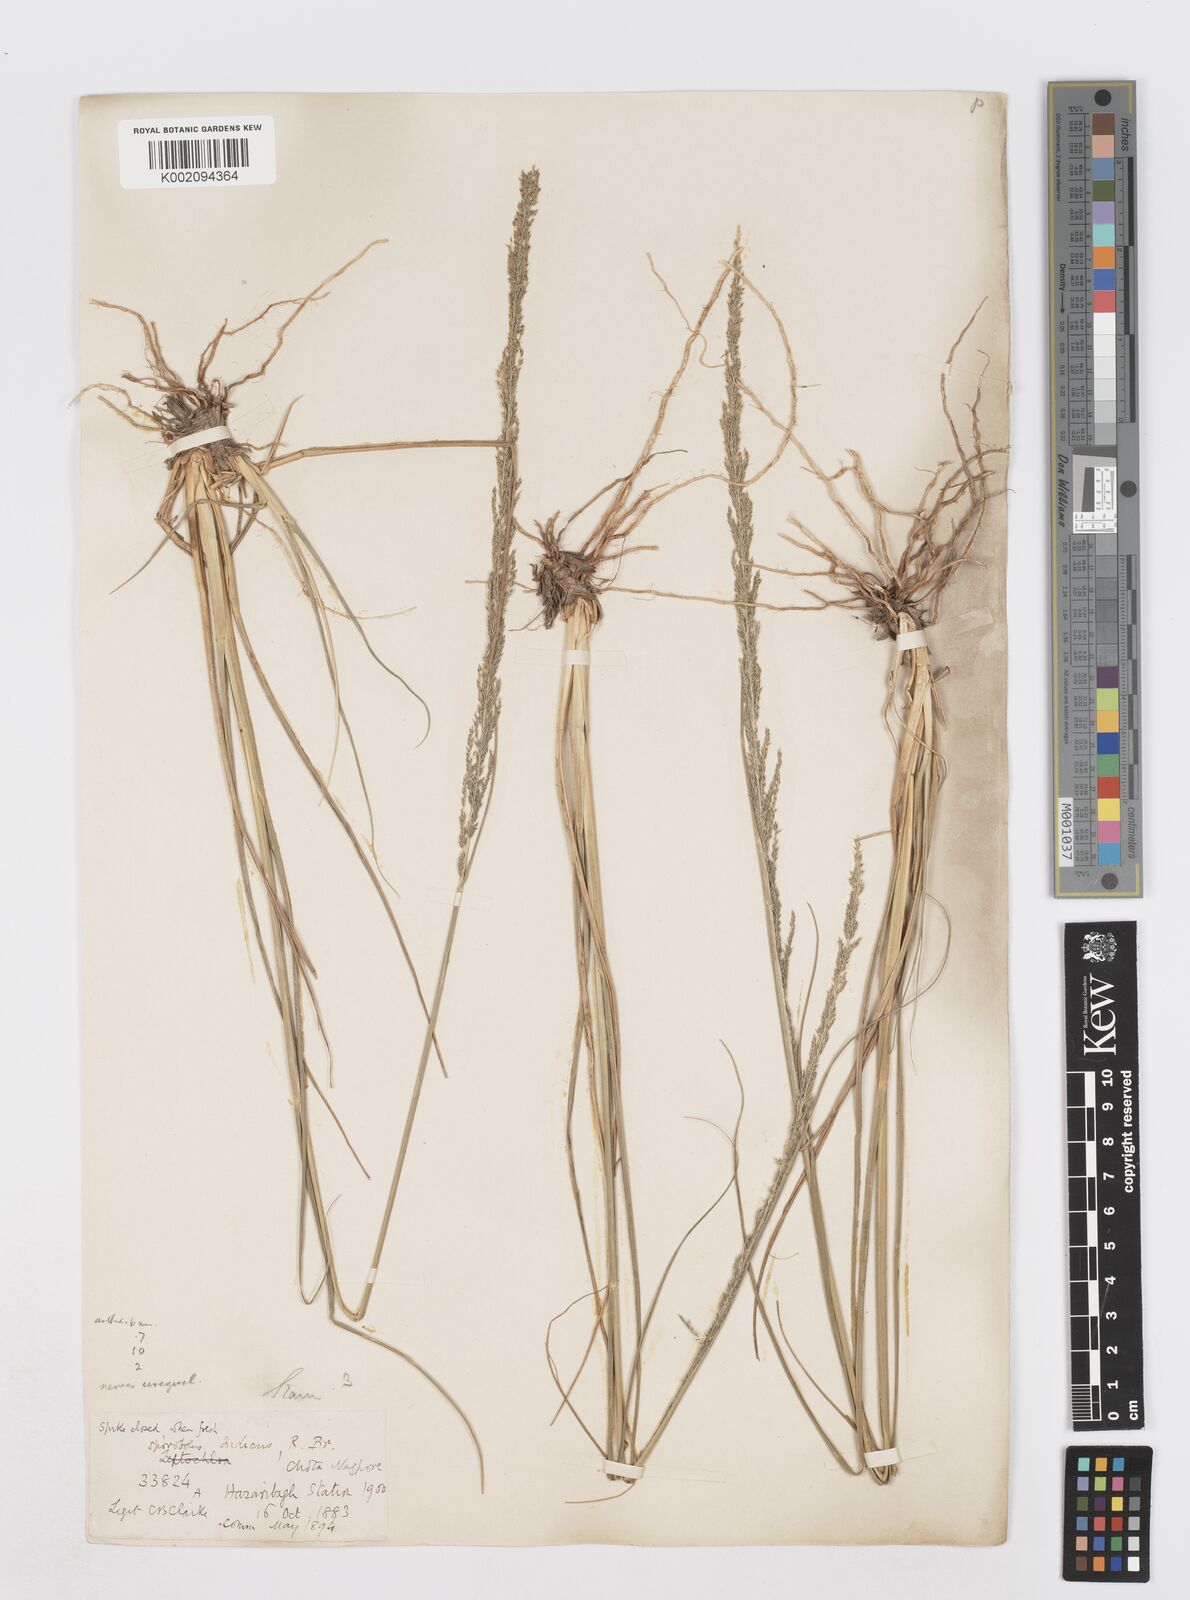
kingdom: Plantae
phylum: Tracheophyta
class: Liliopsida
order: Poales
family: Poaceae
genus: Sporobolus
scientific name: Sporobolus fertilis
